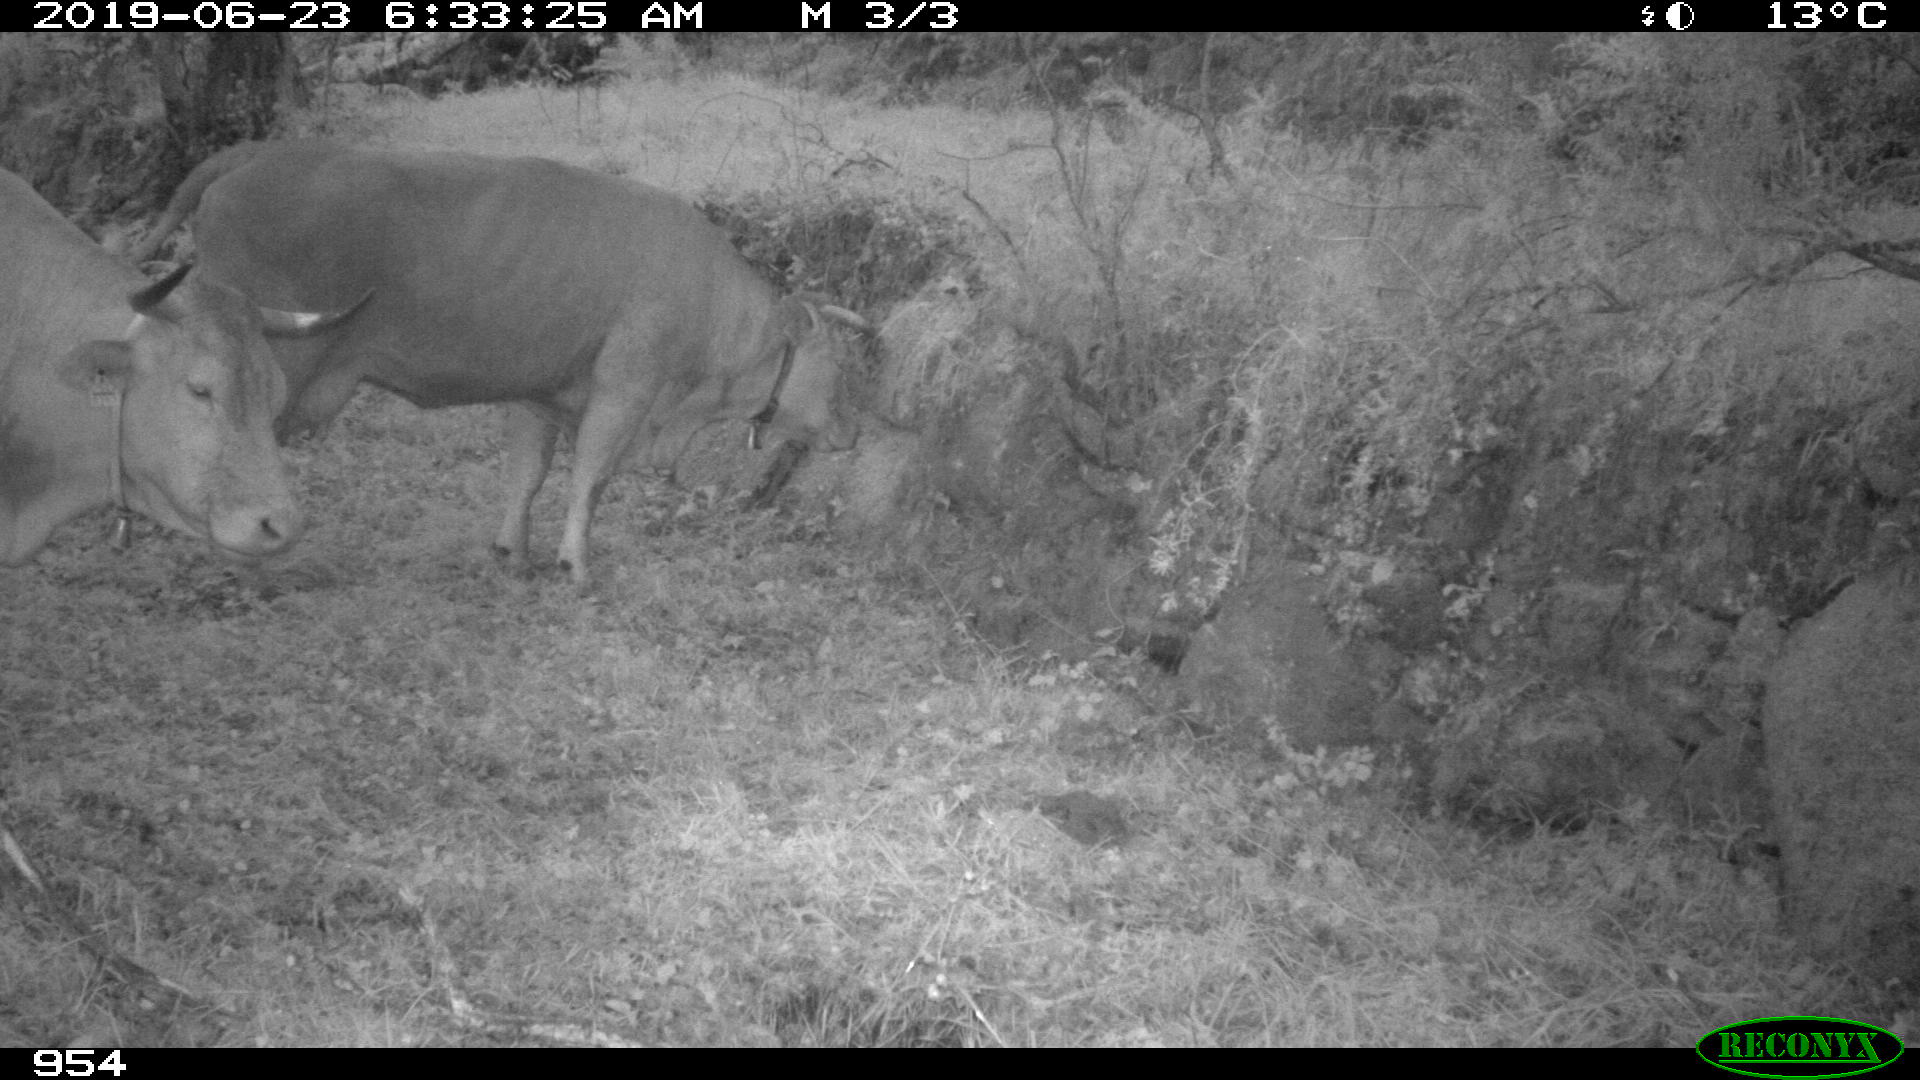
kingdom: Animalia
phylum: Chordata
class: Mammalia
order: Artiodactyla
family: Bovidae
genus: Bos
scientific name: Bos taurus
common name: Domesticated cattle
